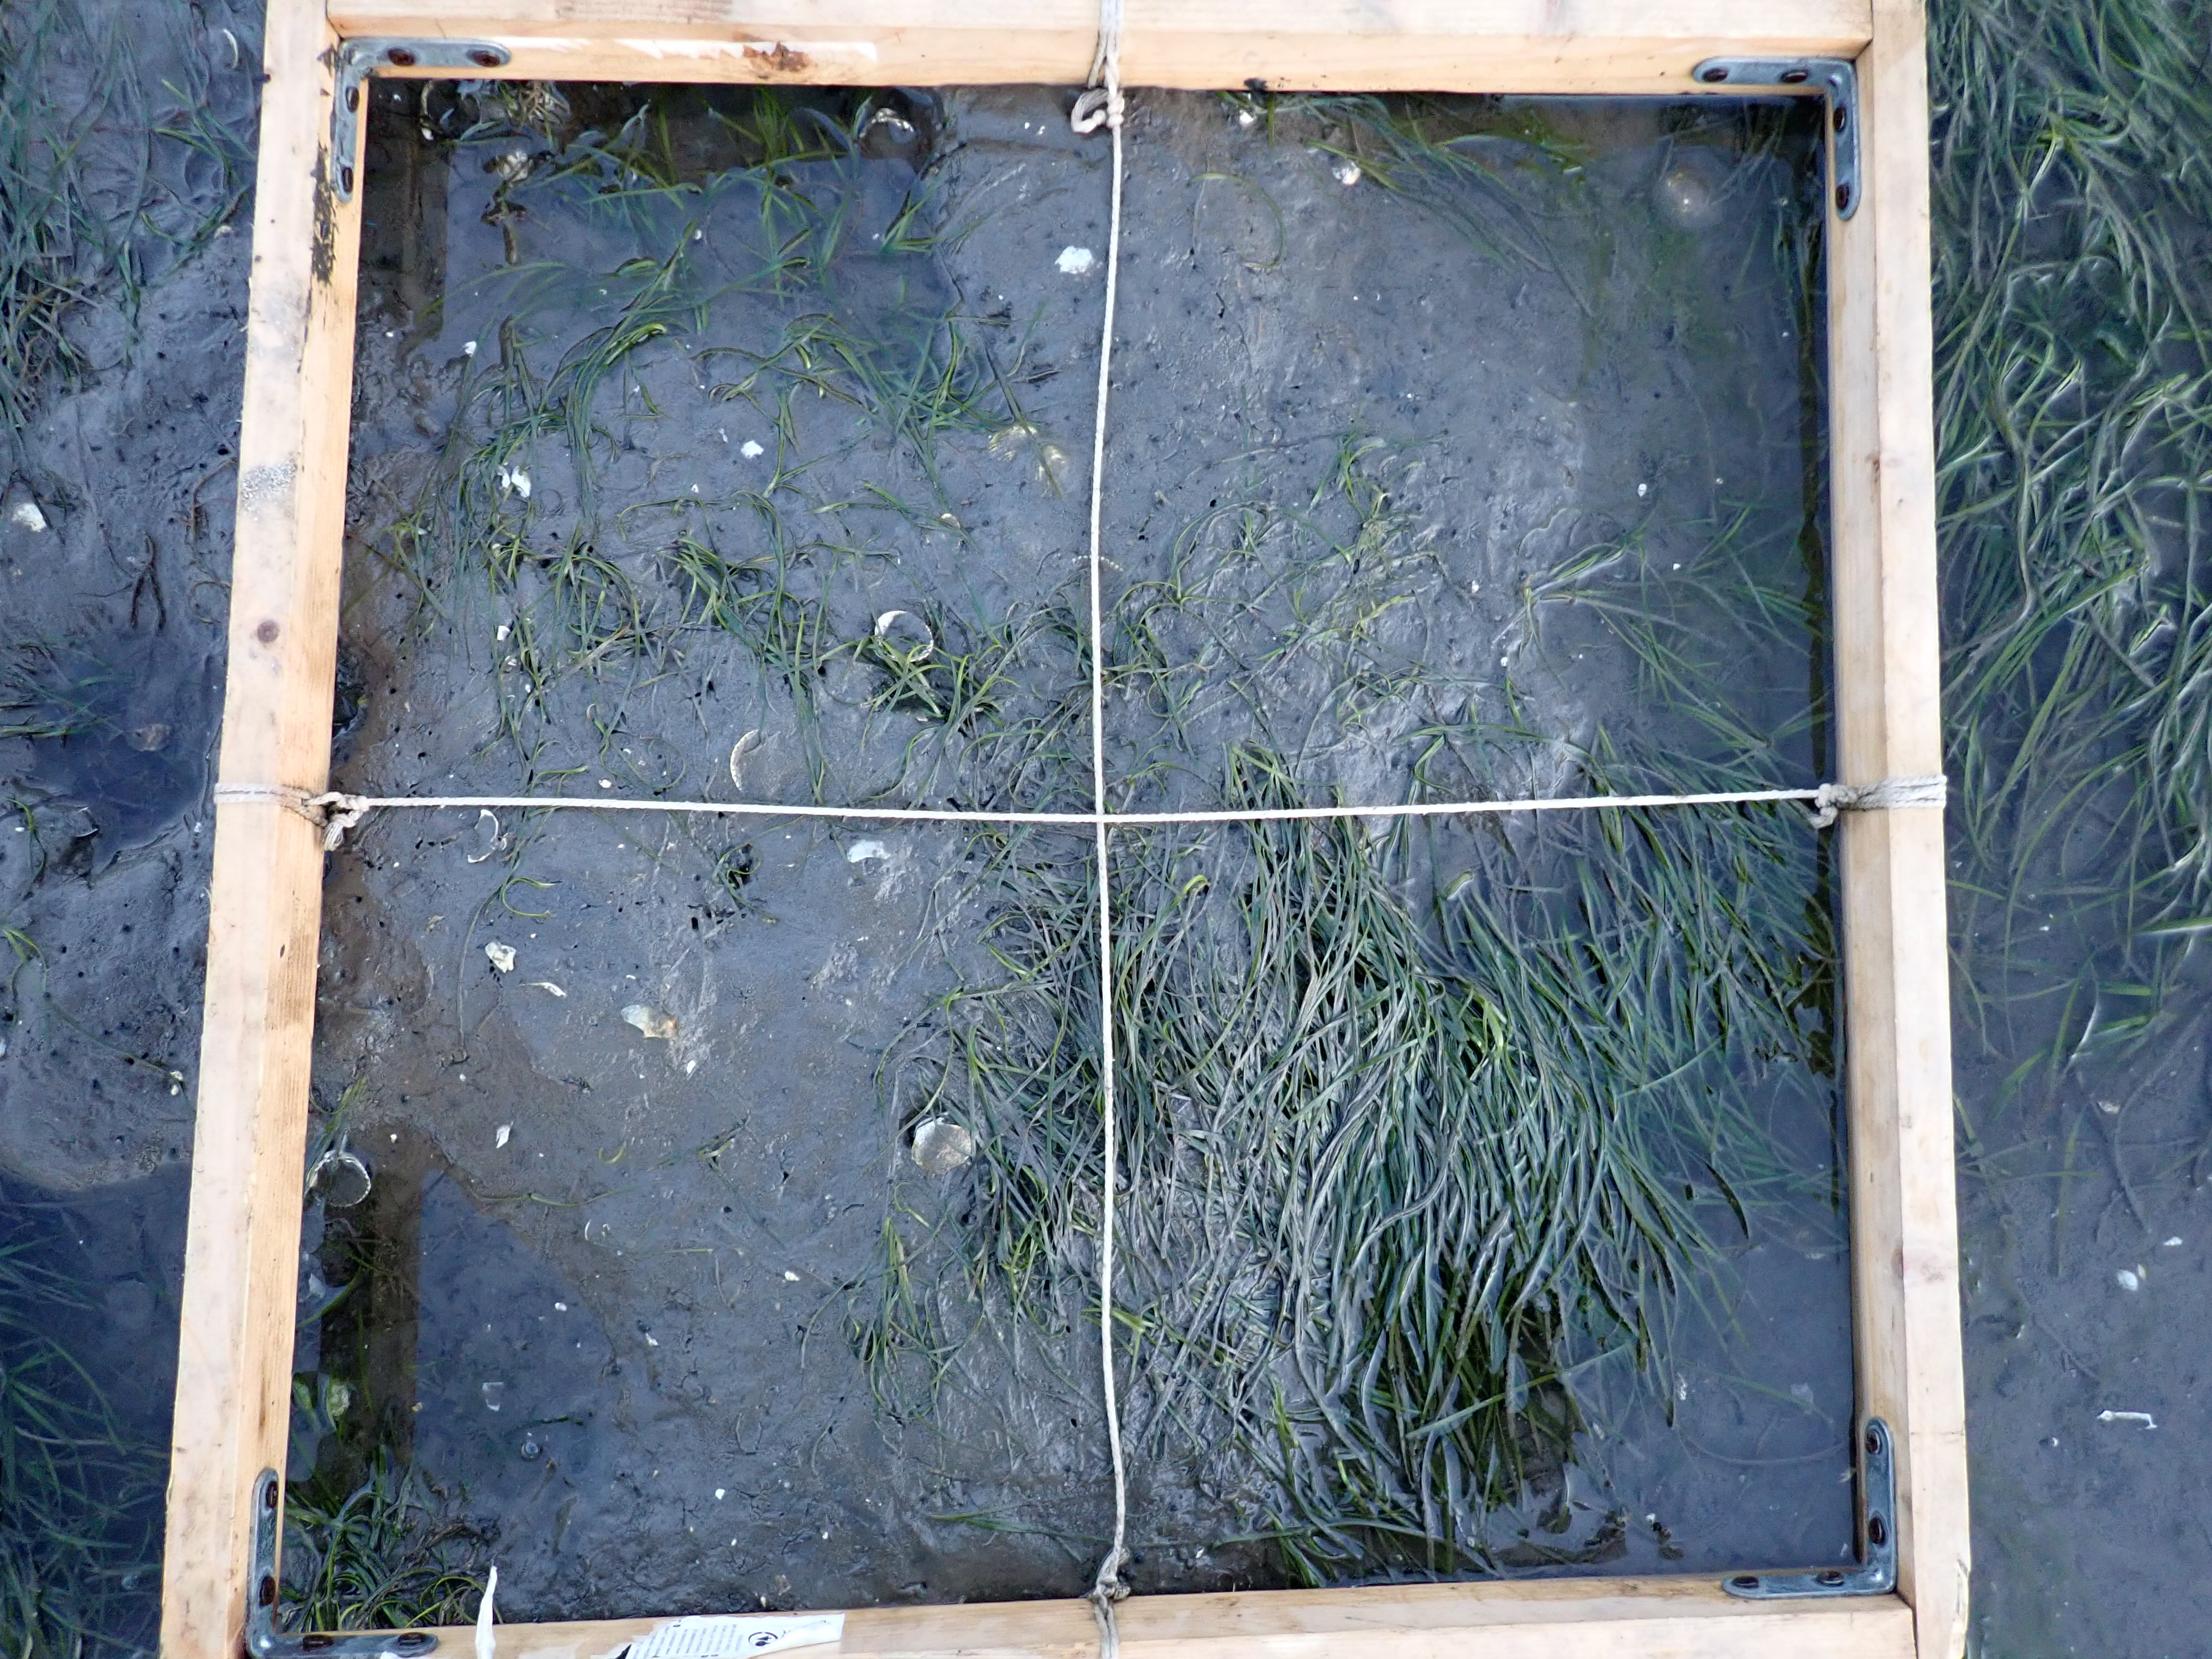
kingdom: Plantae
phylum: Tracheophyta
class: Liliopsida
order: Alismatales
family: Zosteraceae
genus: Zostera
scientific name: Zostera noltii
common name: Dwarf eelgrass
